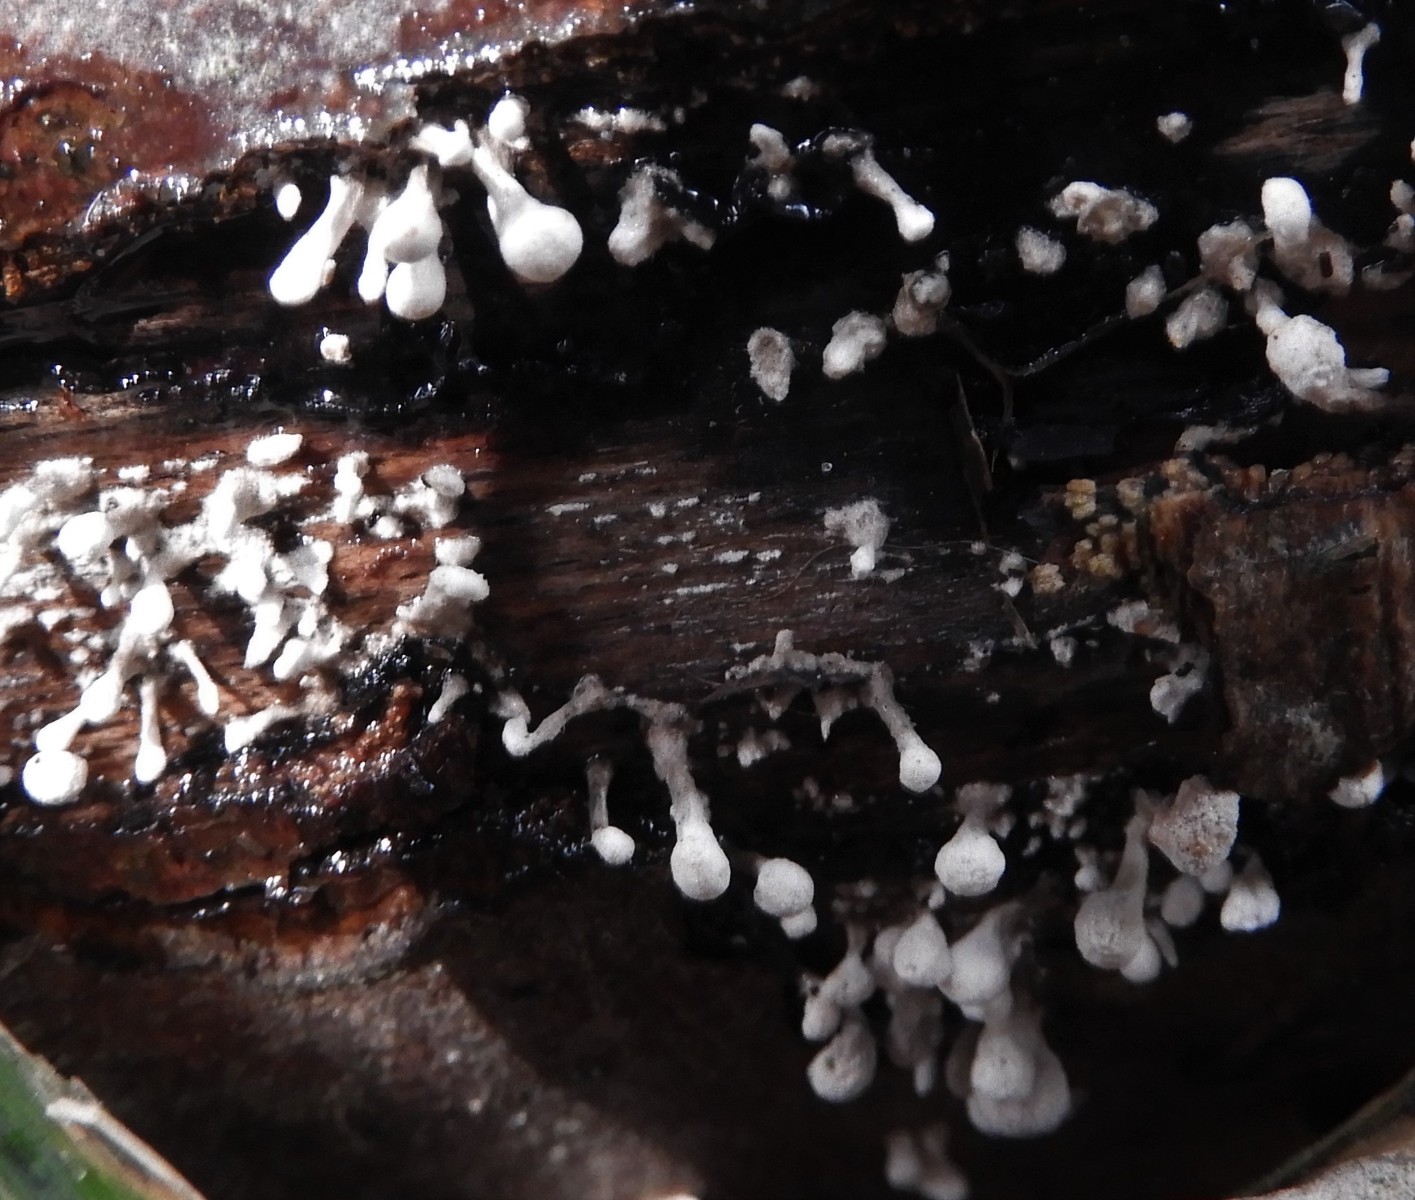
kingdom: Fungi
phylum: Basidiomycota
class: Atractiellomycetes
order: Atractiellales
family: Phleogenaceae
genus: Phleogena
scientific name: Phleogena faginea
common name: pudderkølle
